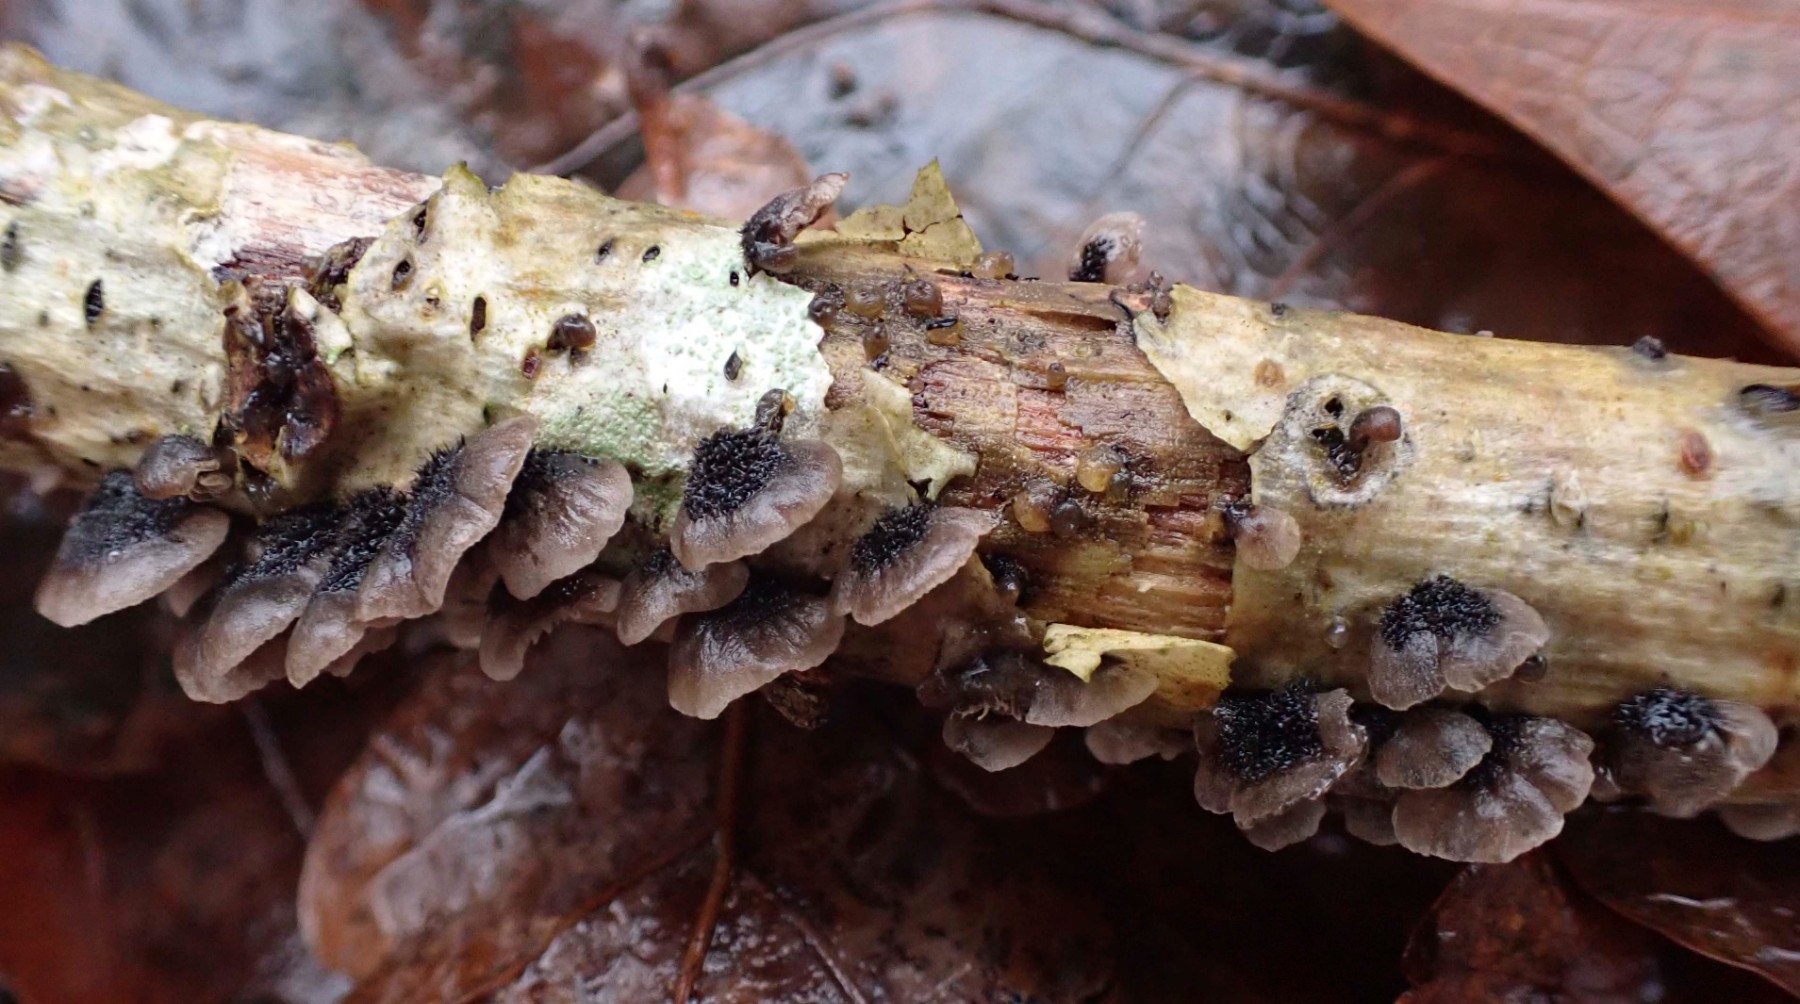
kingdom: Fungi
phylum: Basidiomycota
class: Agaricomycetes
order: Agaricales
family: Pleurotaceae
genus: Resupinatus
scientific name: Resupinatus trichotis
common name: mørkfiltet barkhat
